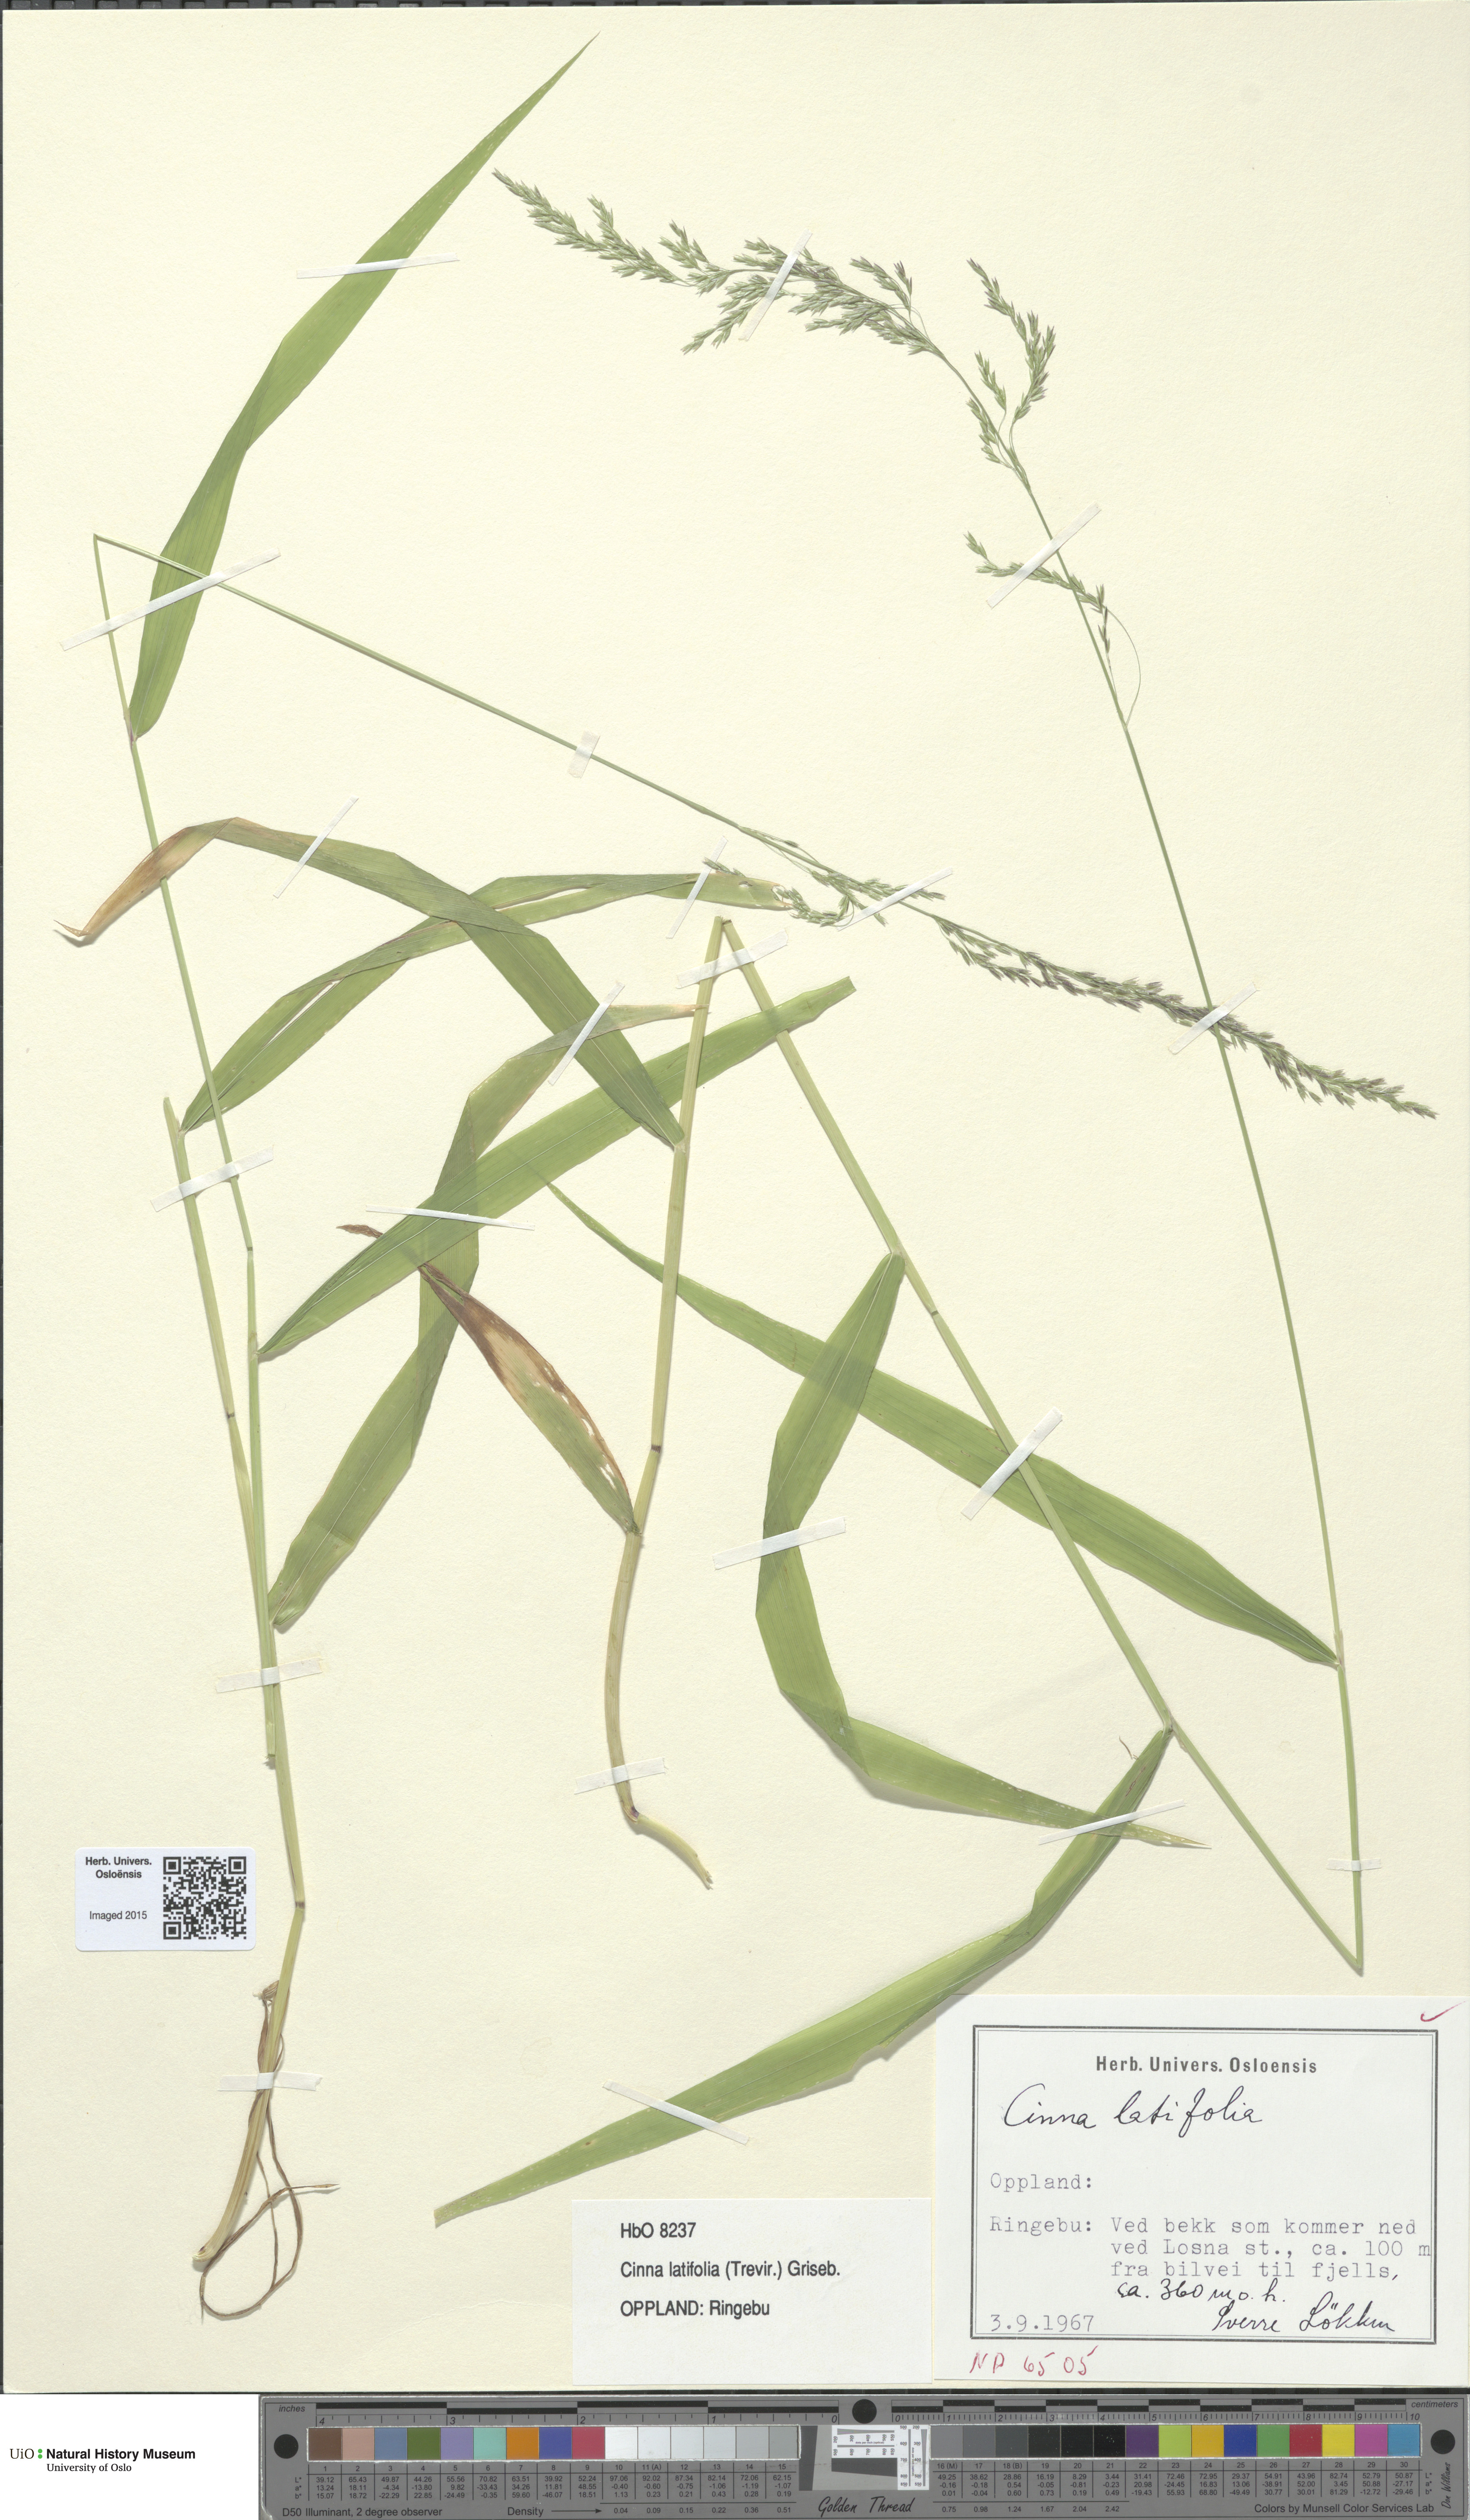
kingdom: Plantae
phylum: Tracheophyta
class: Liliopsida
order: Poales
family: Poaceae
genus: Cinna
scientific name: Cinna latifolia
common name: Drooping woodreed
